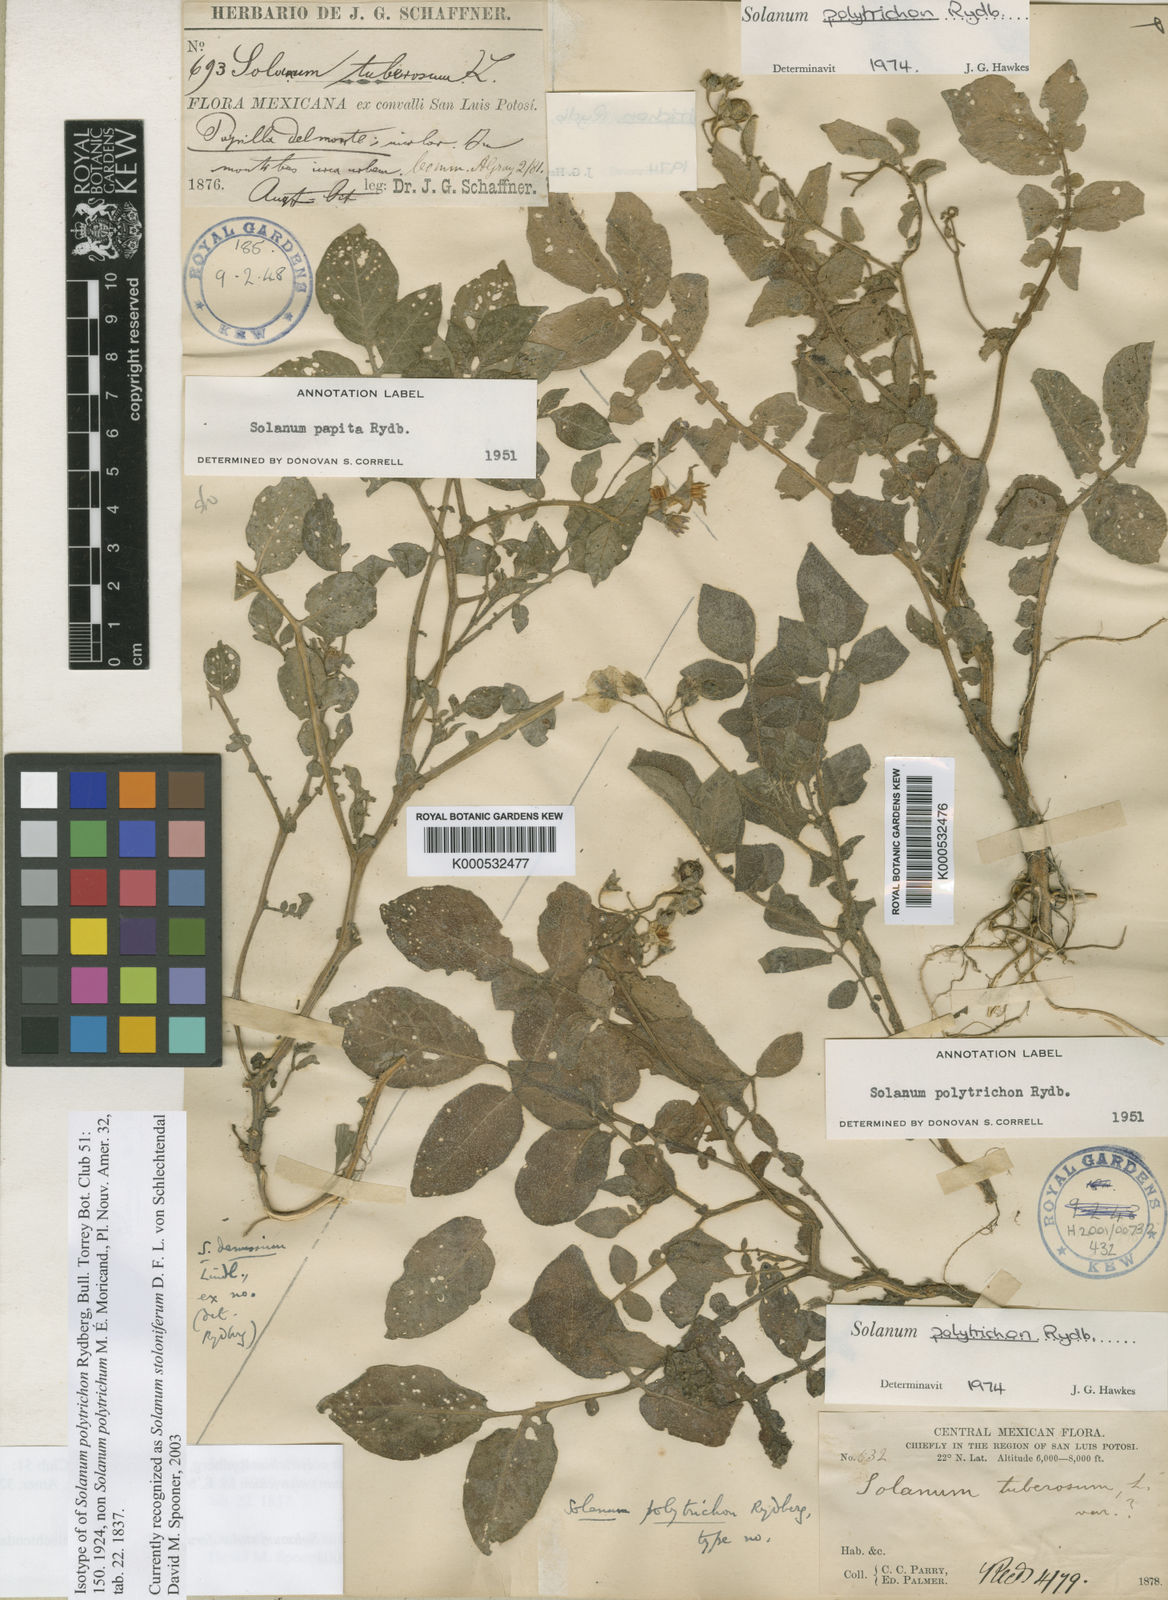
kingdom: Plantae
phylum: Tracheophyta
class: Magnoliopsida
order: Solanales
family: Solanaceae
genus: Solanum
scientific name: Solanum stoloniferum
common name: Fendler's nighshade
